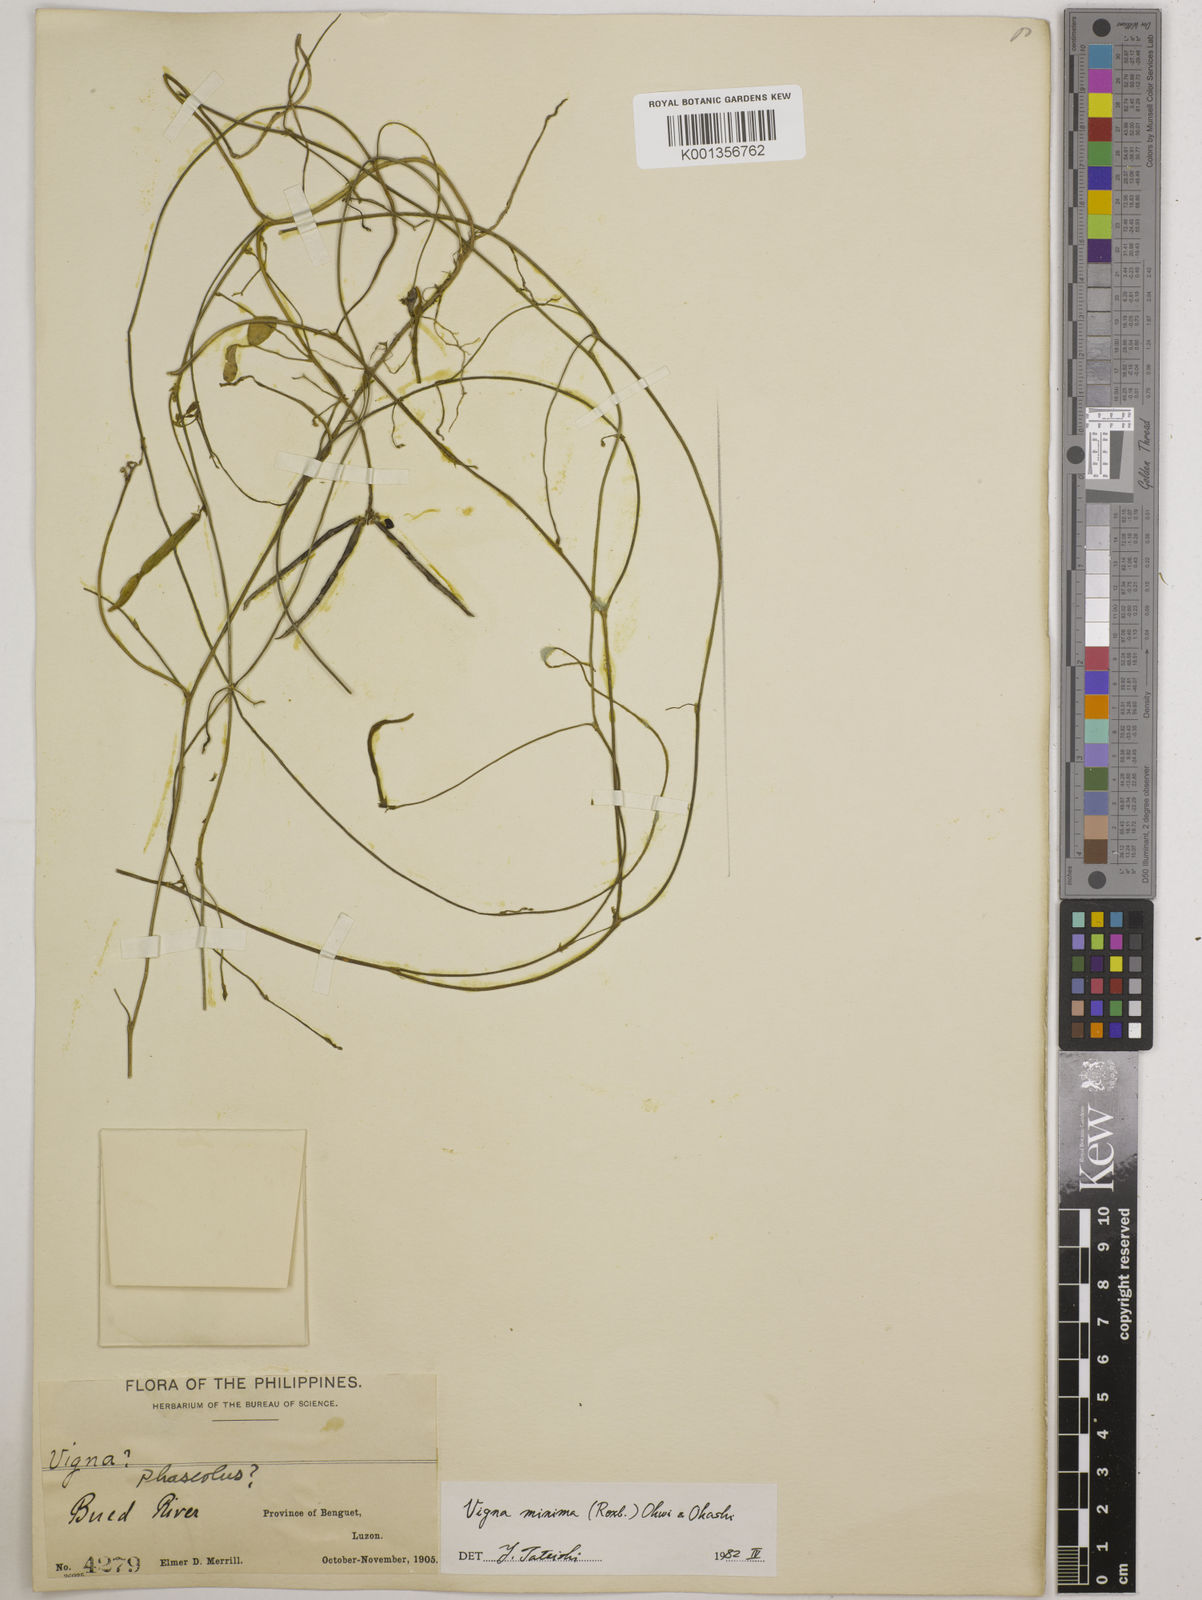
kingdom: Plantae
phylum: Tracheophyta
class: Magnoliopsida
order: Fabales
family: Fabaceae
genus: Vigna
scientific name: Vigna minima
